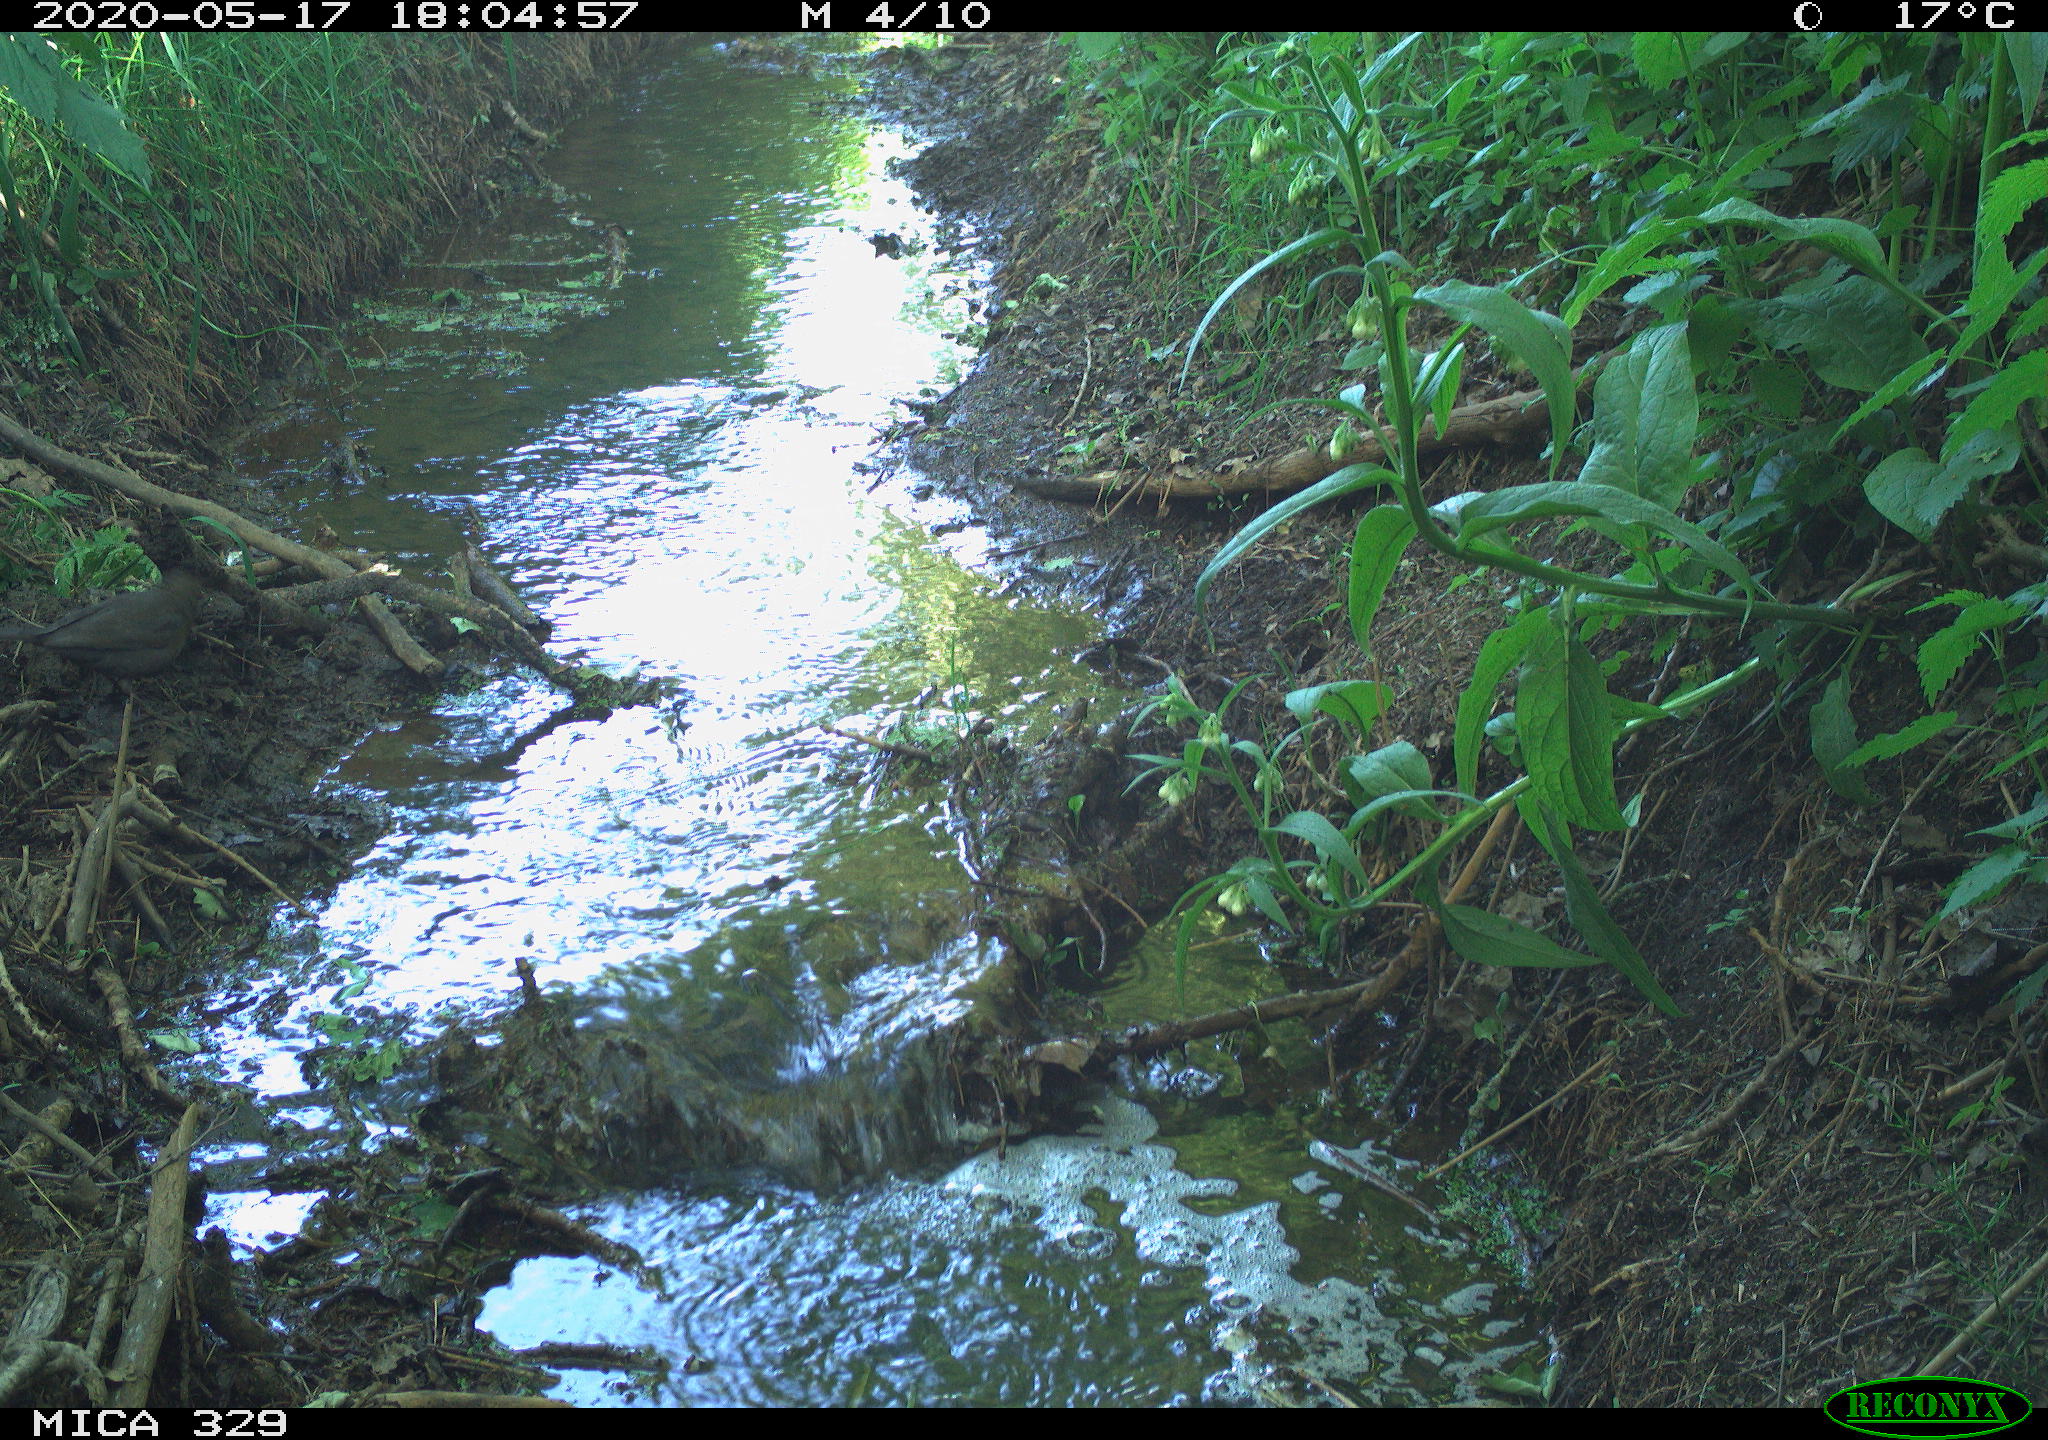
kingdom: Animalia
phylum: Chordata
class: Aves
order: Passeriformes
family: Turdidae
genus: Turdus
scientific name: Turdus philomelos
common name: Song thrush
